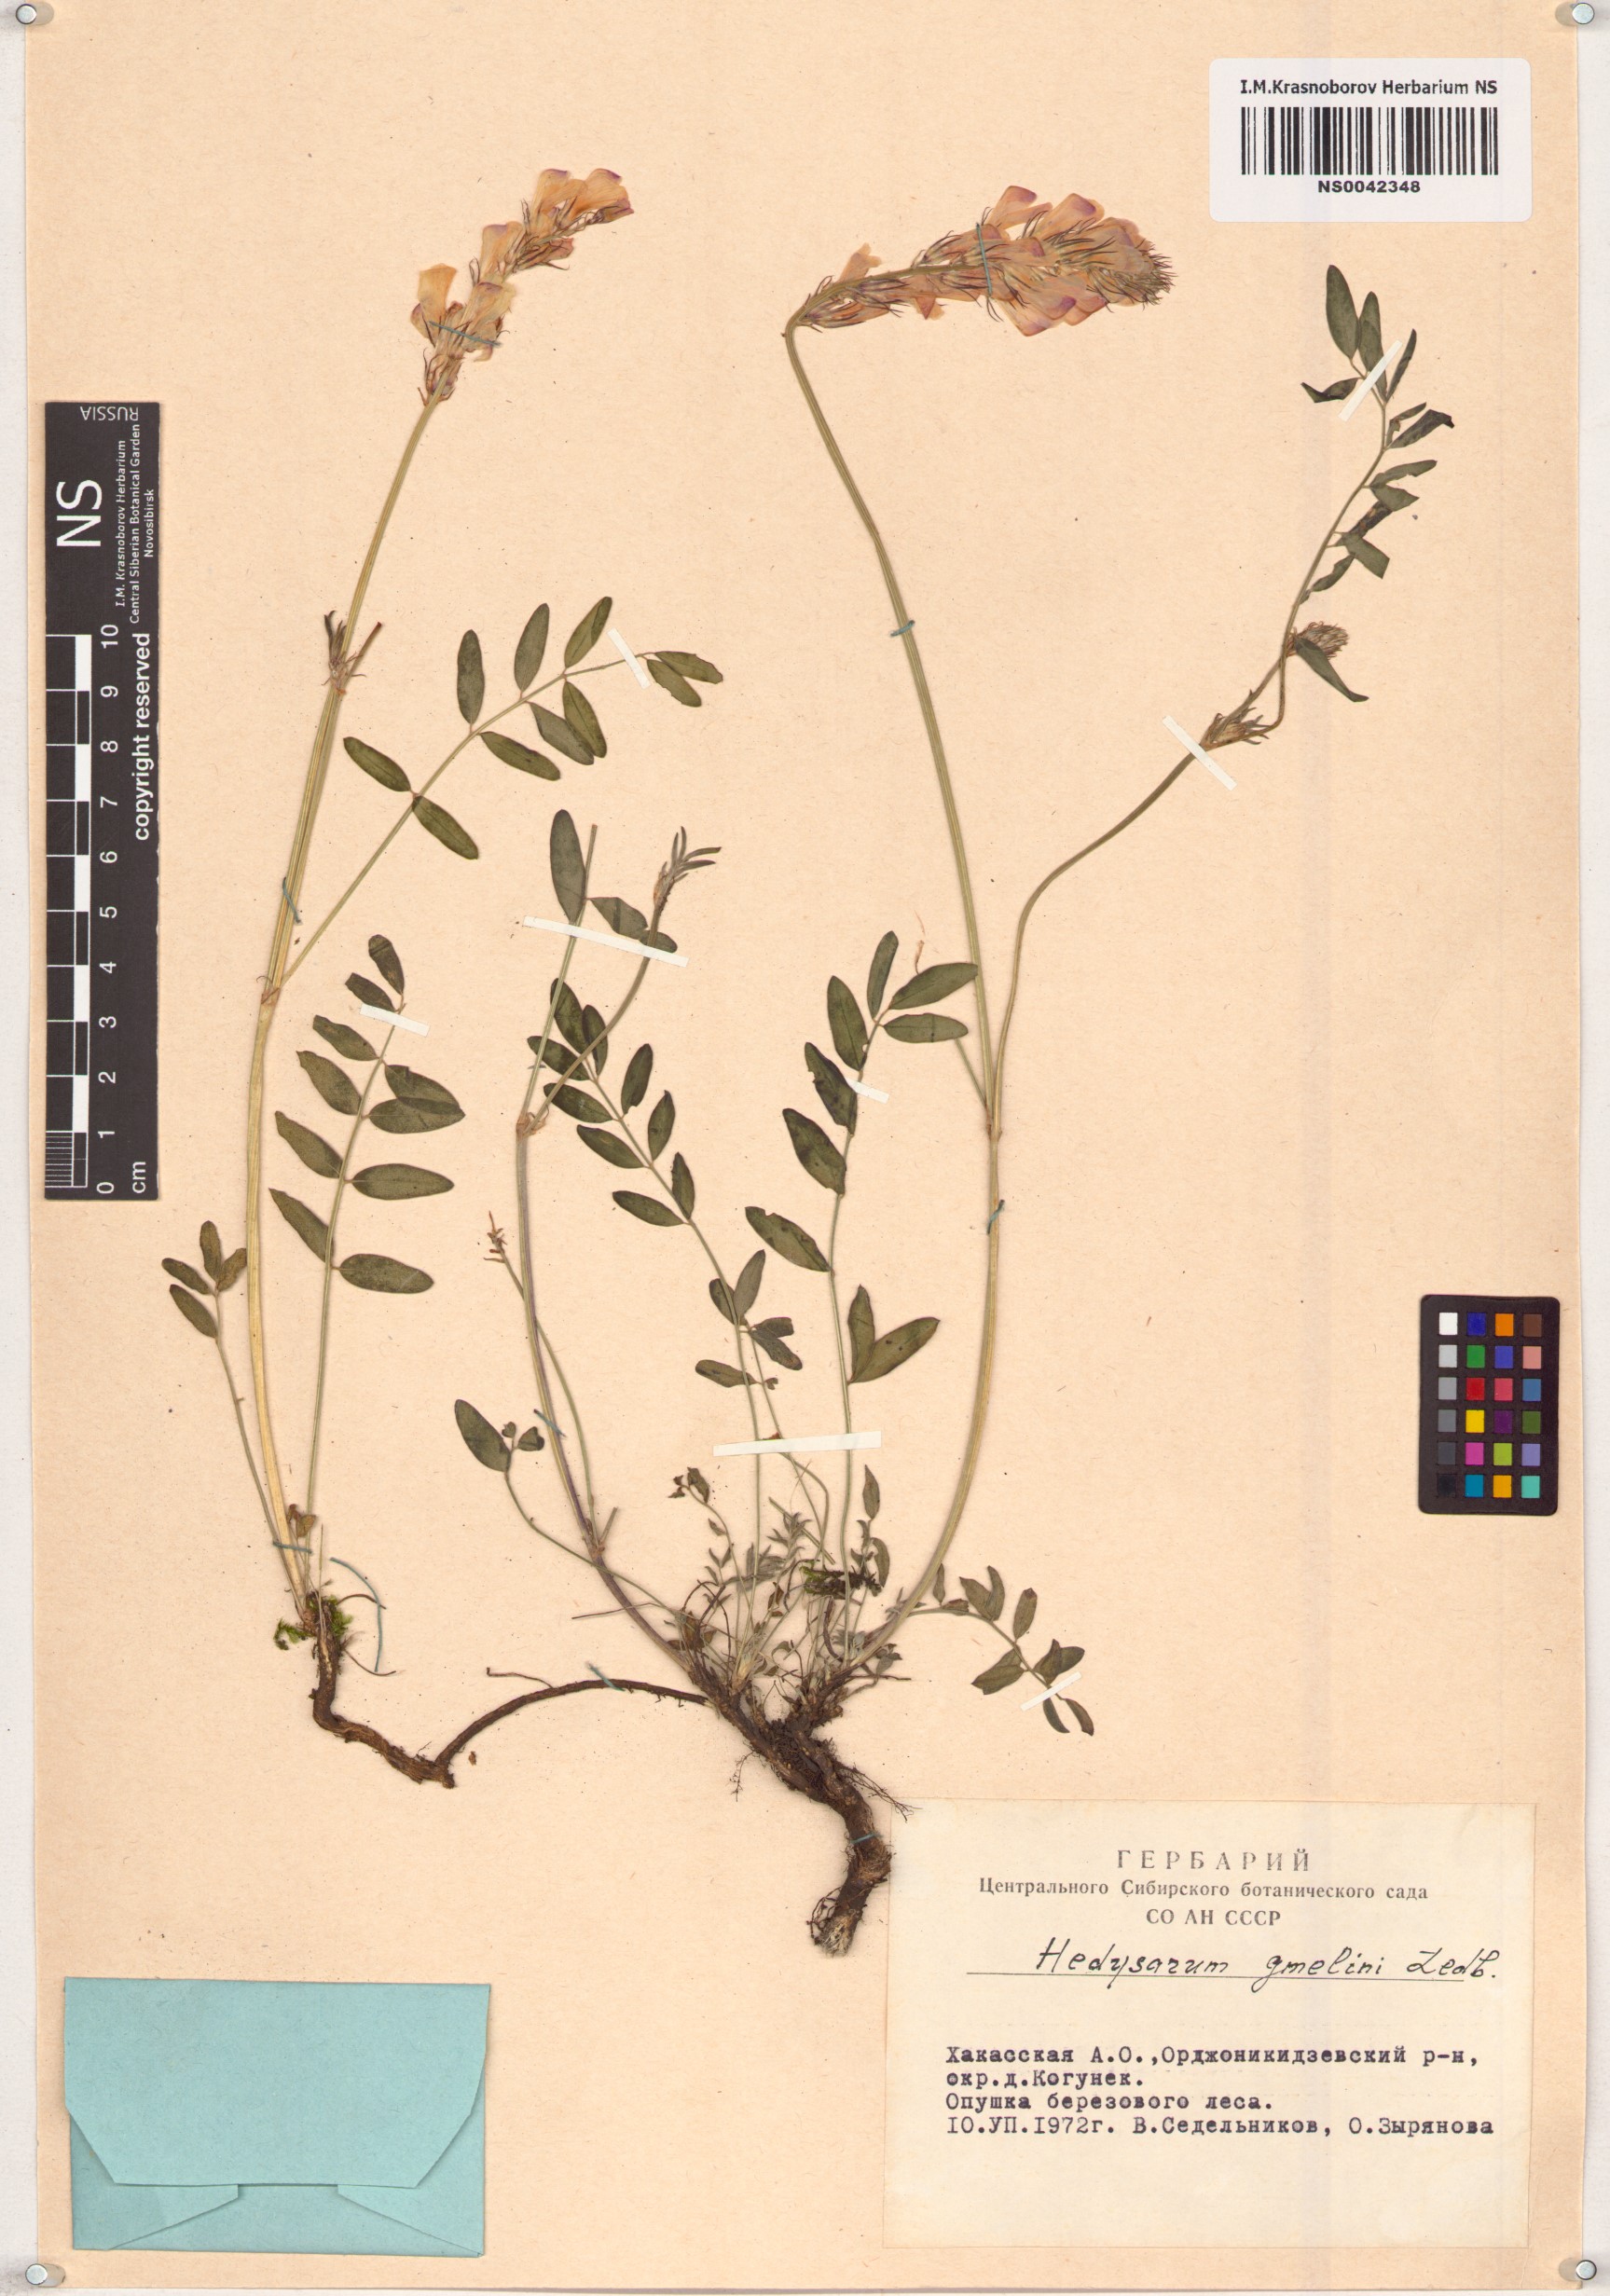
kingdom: Plantae
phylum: Tracheophyta
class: Magnoliopsida
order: Fabales
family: Fabaceae
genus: Hedysarum
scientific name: Hedysarum gmelinii
